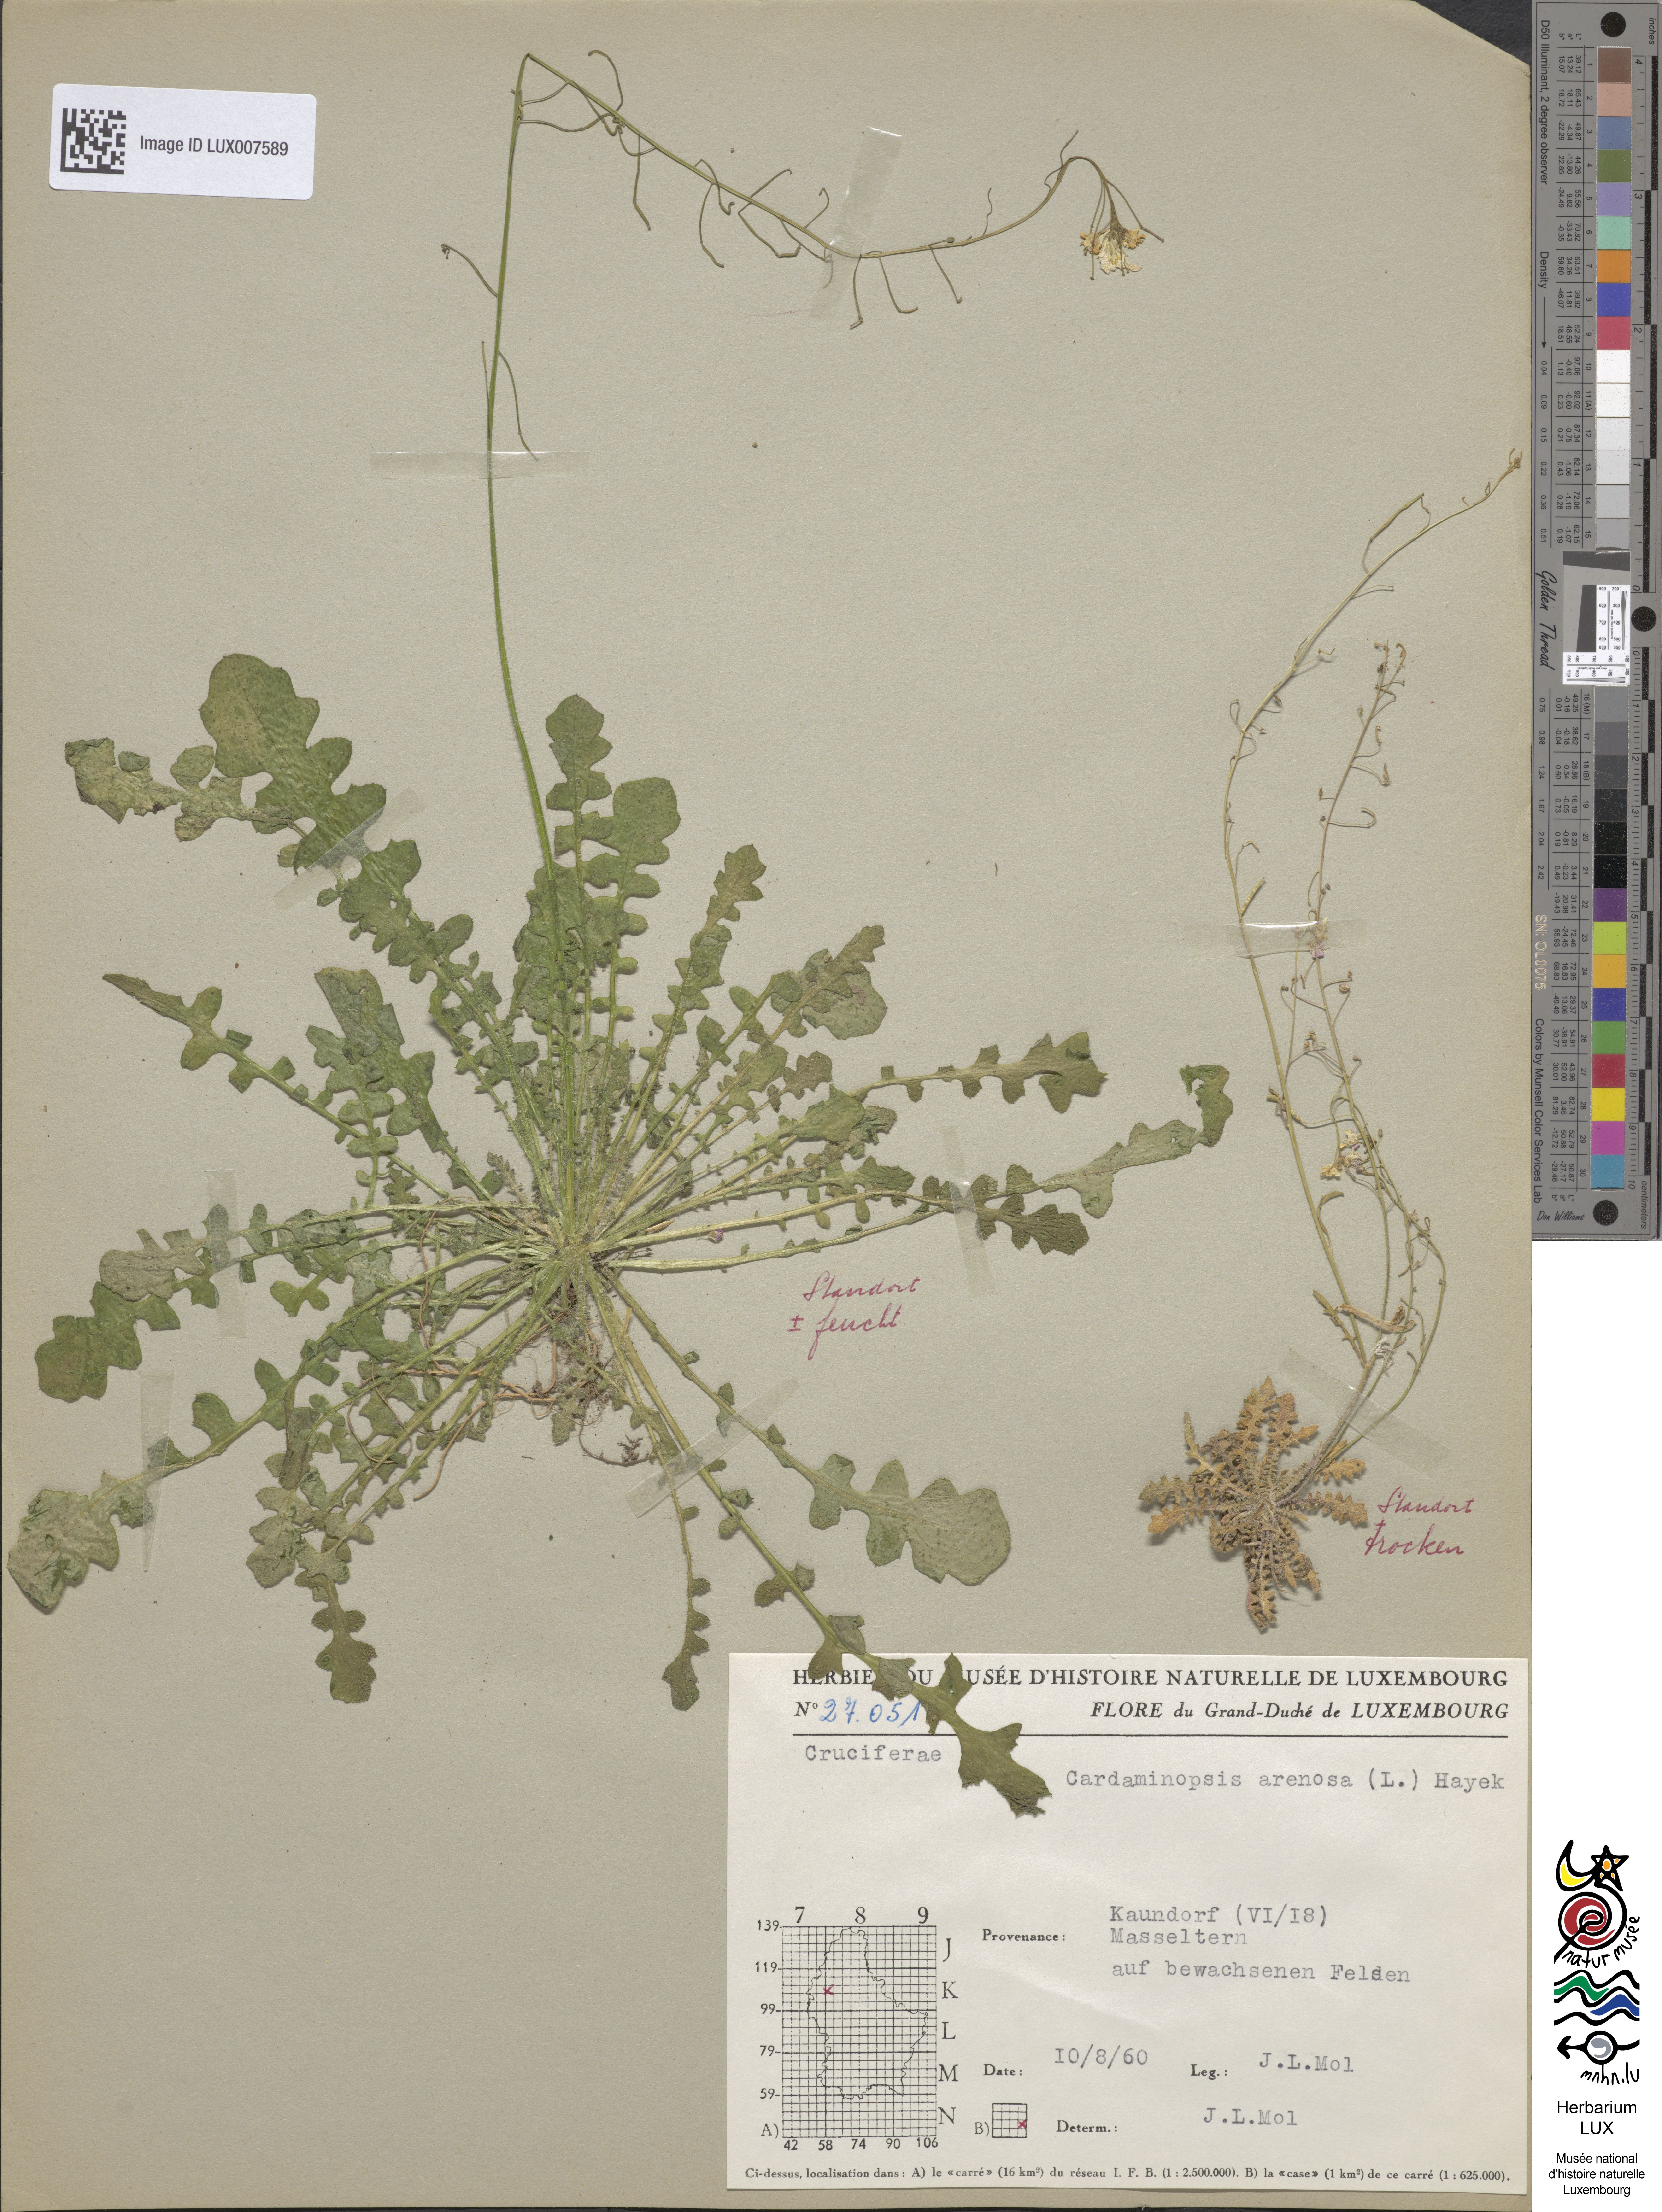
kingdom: Plantae
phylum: Tracheophyta
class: Magnoliopsida
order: Brassicales
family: Brassicaceae
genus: Arabidopsis
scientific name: Arabidopsis arenosa
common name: Sand rock-cress
